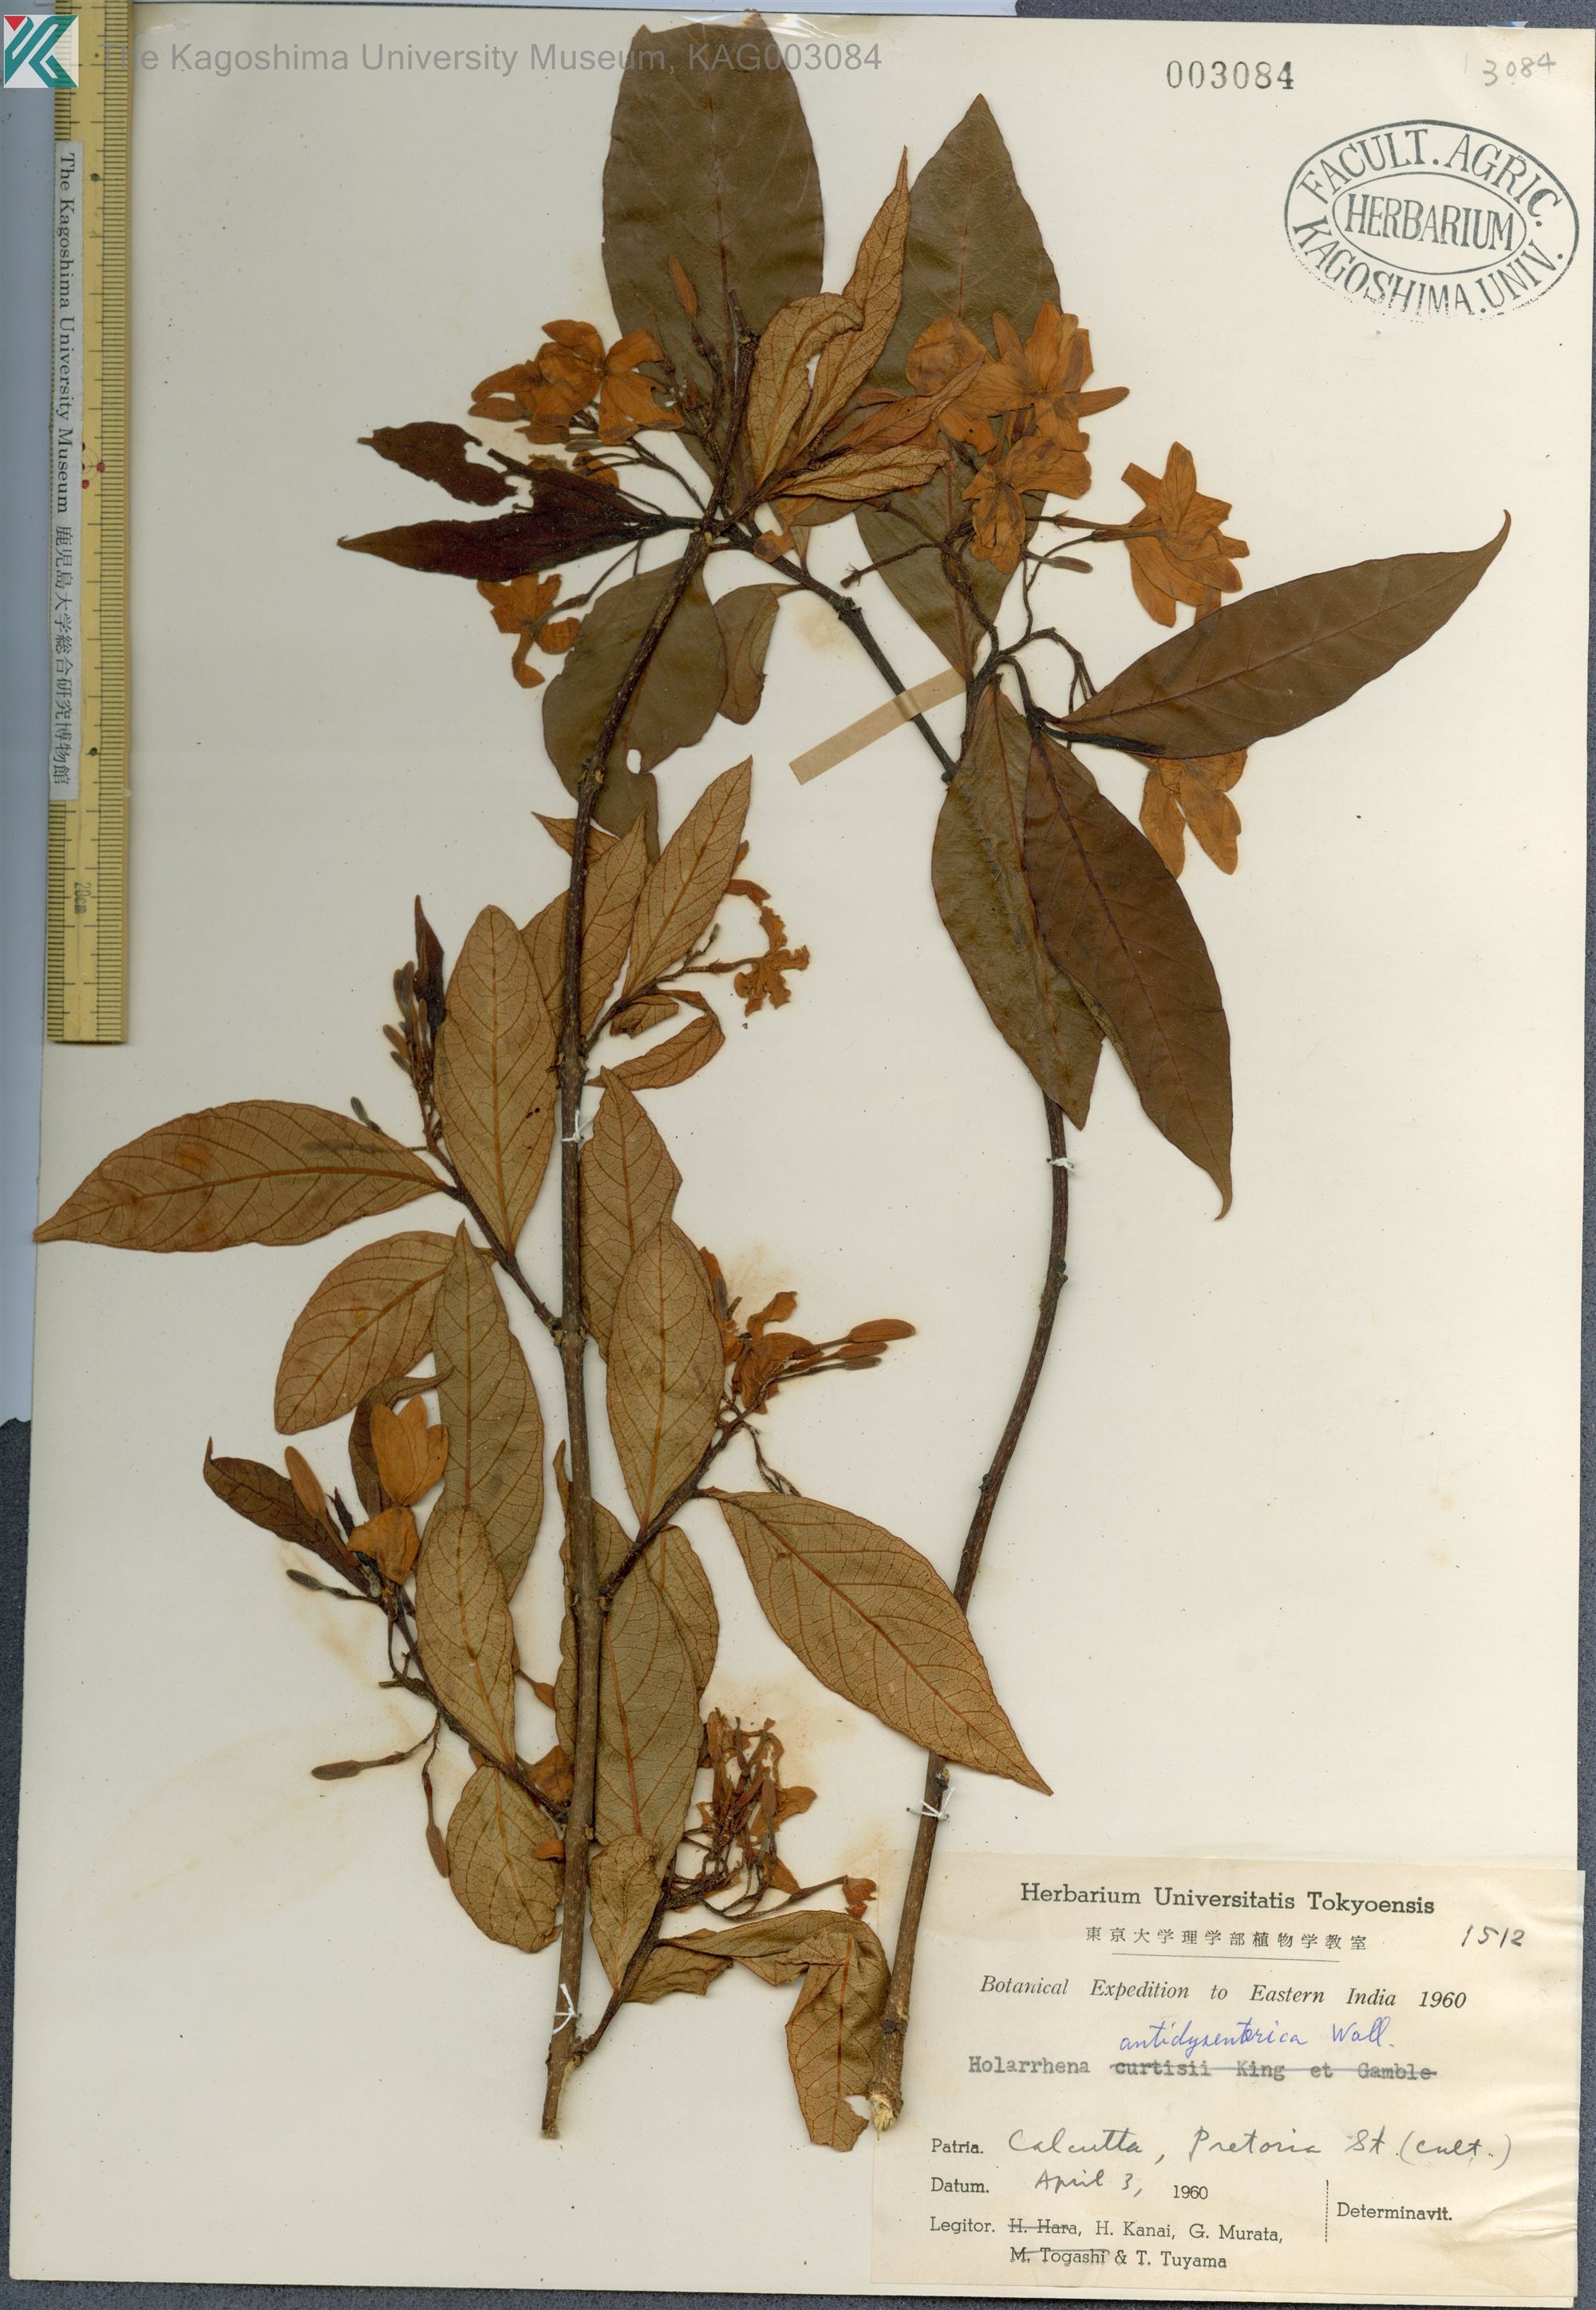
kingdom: Plantae
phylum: Tracheophyta
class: Magnoliopsida
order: Gentianales
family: Apocynaceae
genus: Holarrhena
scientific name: Holarrhena pubescens
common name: Bitter oleander
